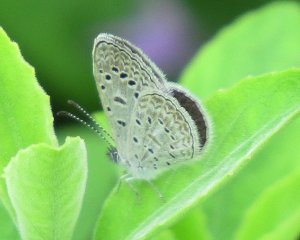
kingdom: Animalia
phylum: Arthropoda
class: Insecta
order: Lepidoptera
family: Lycaenidae
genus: Lycaena
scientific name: Lycaena cyna
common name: Cyna Blue
